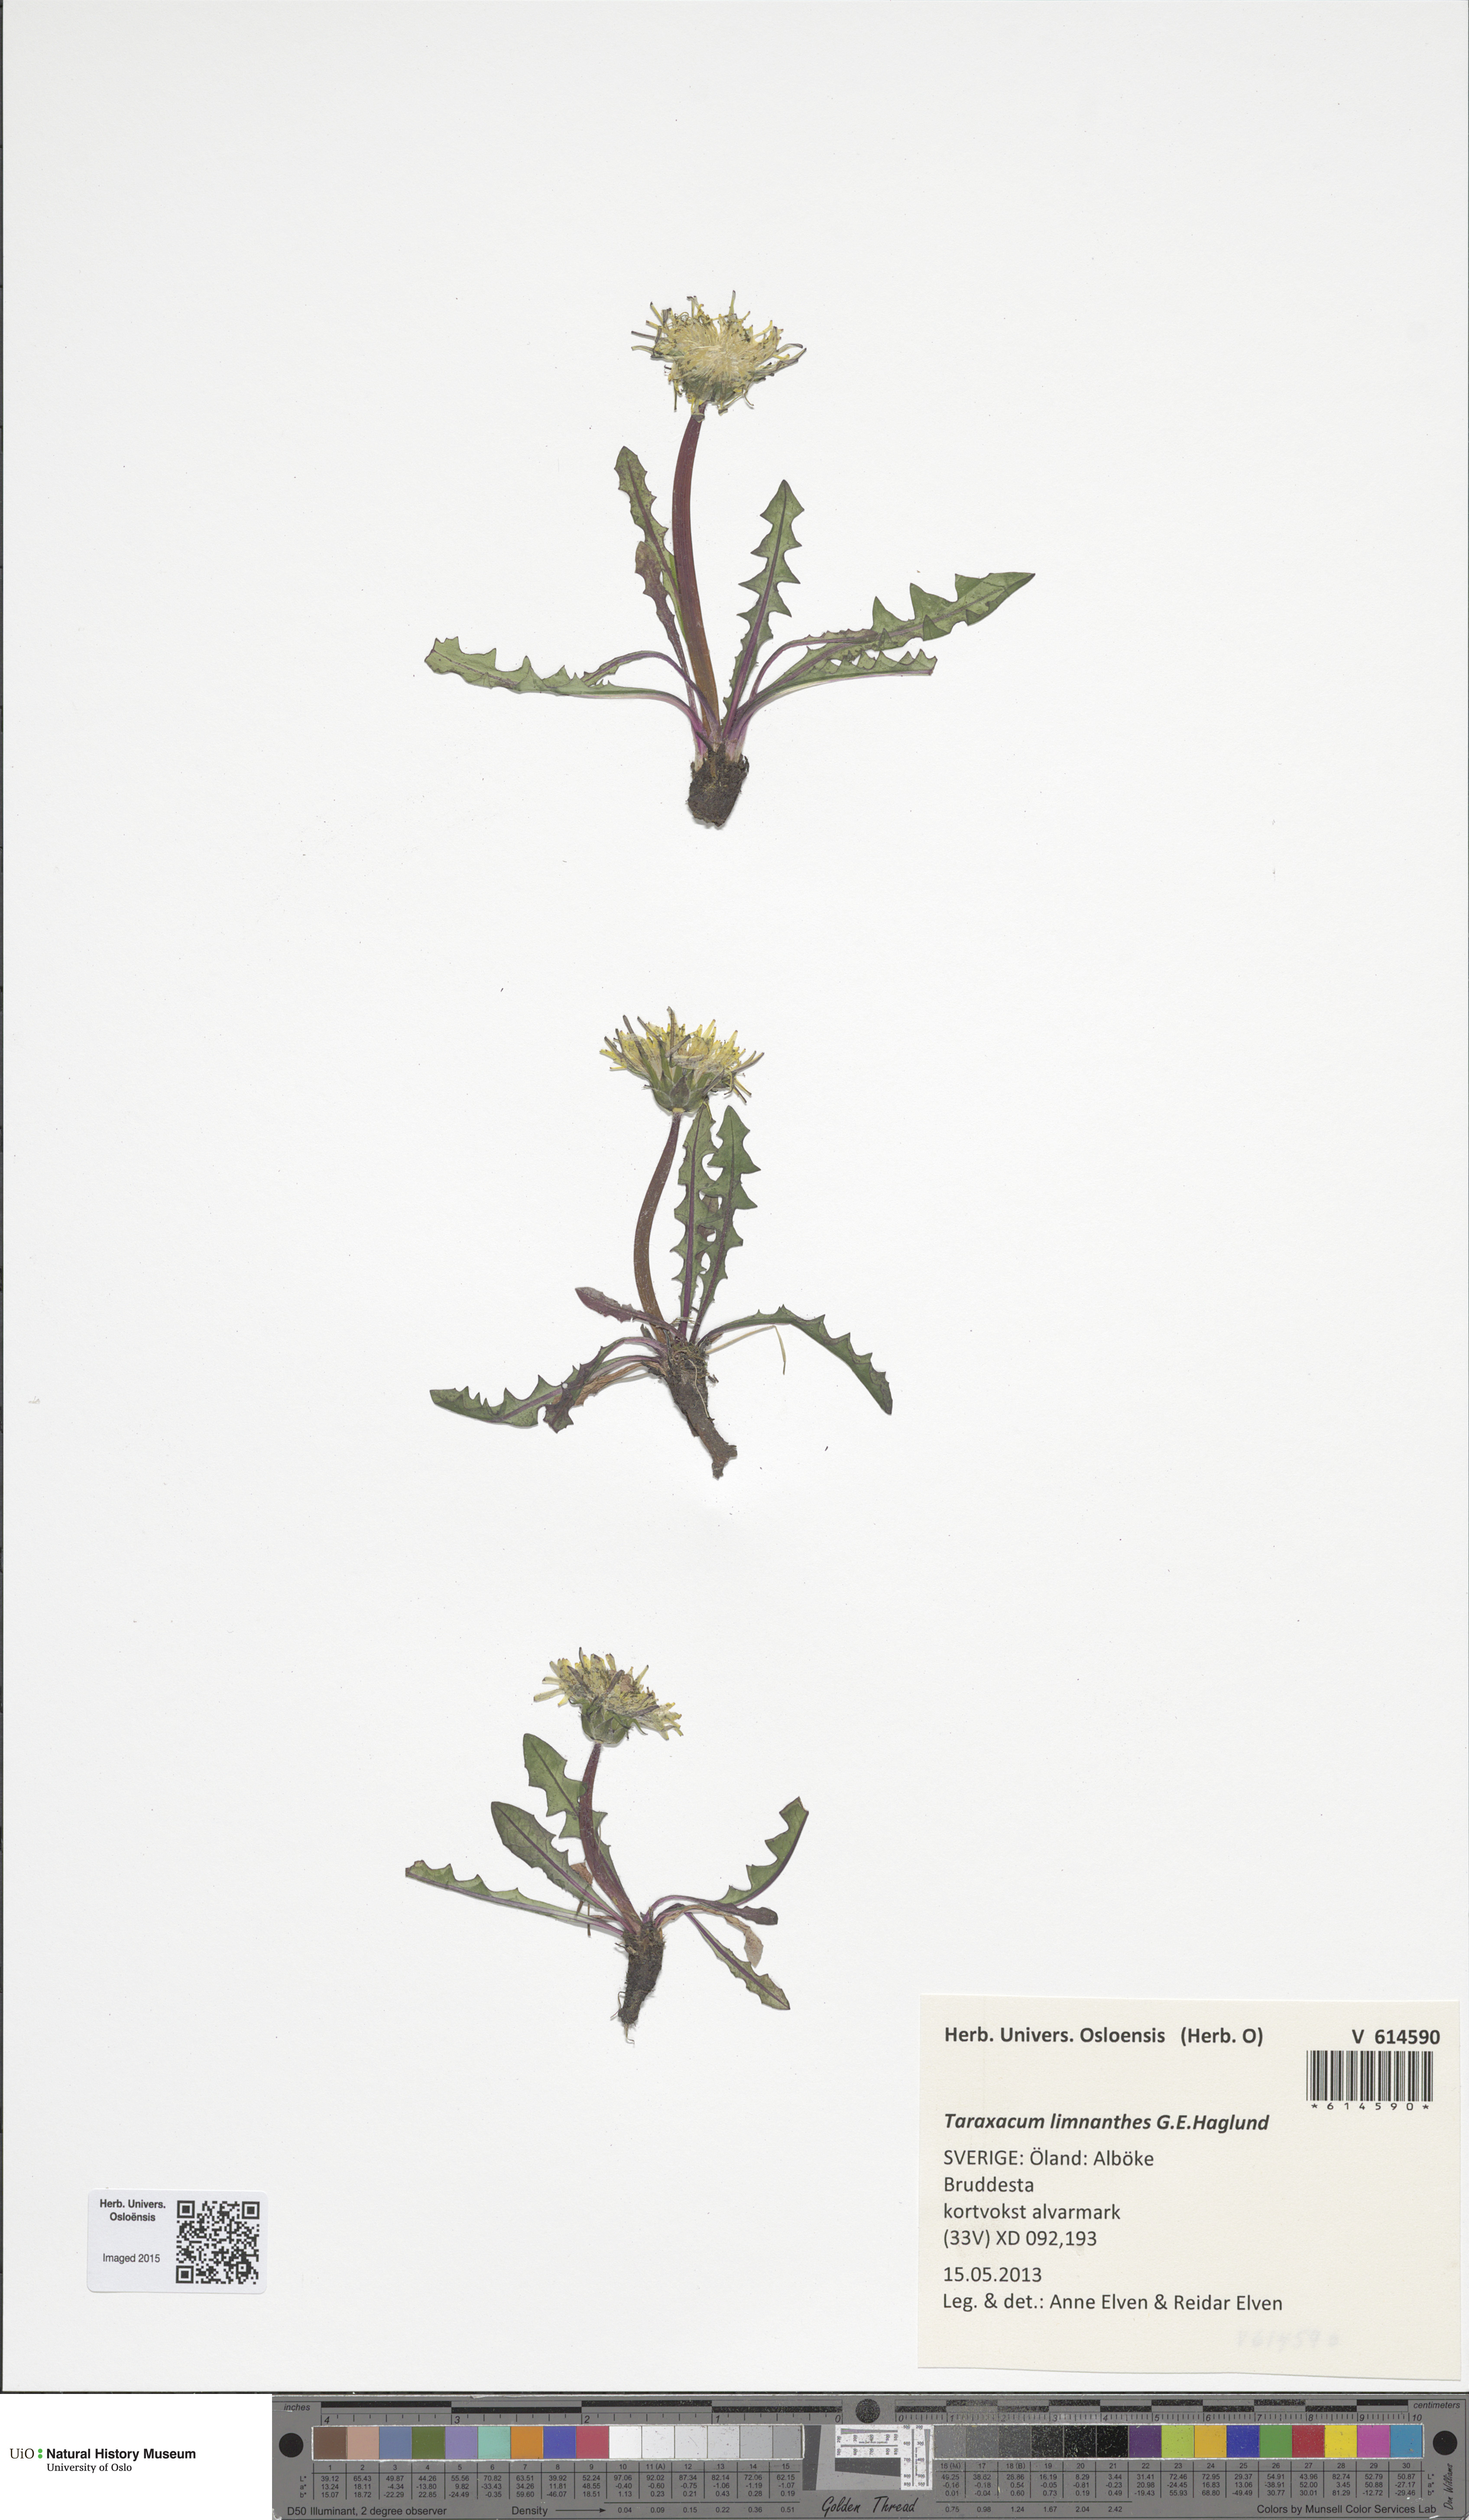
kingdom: Plantae
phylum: Tracheophyta
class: Magnoliopsida
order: Asterales
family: Asteraceae
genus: Taraxacum
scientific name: Taraxacum limnanthes
